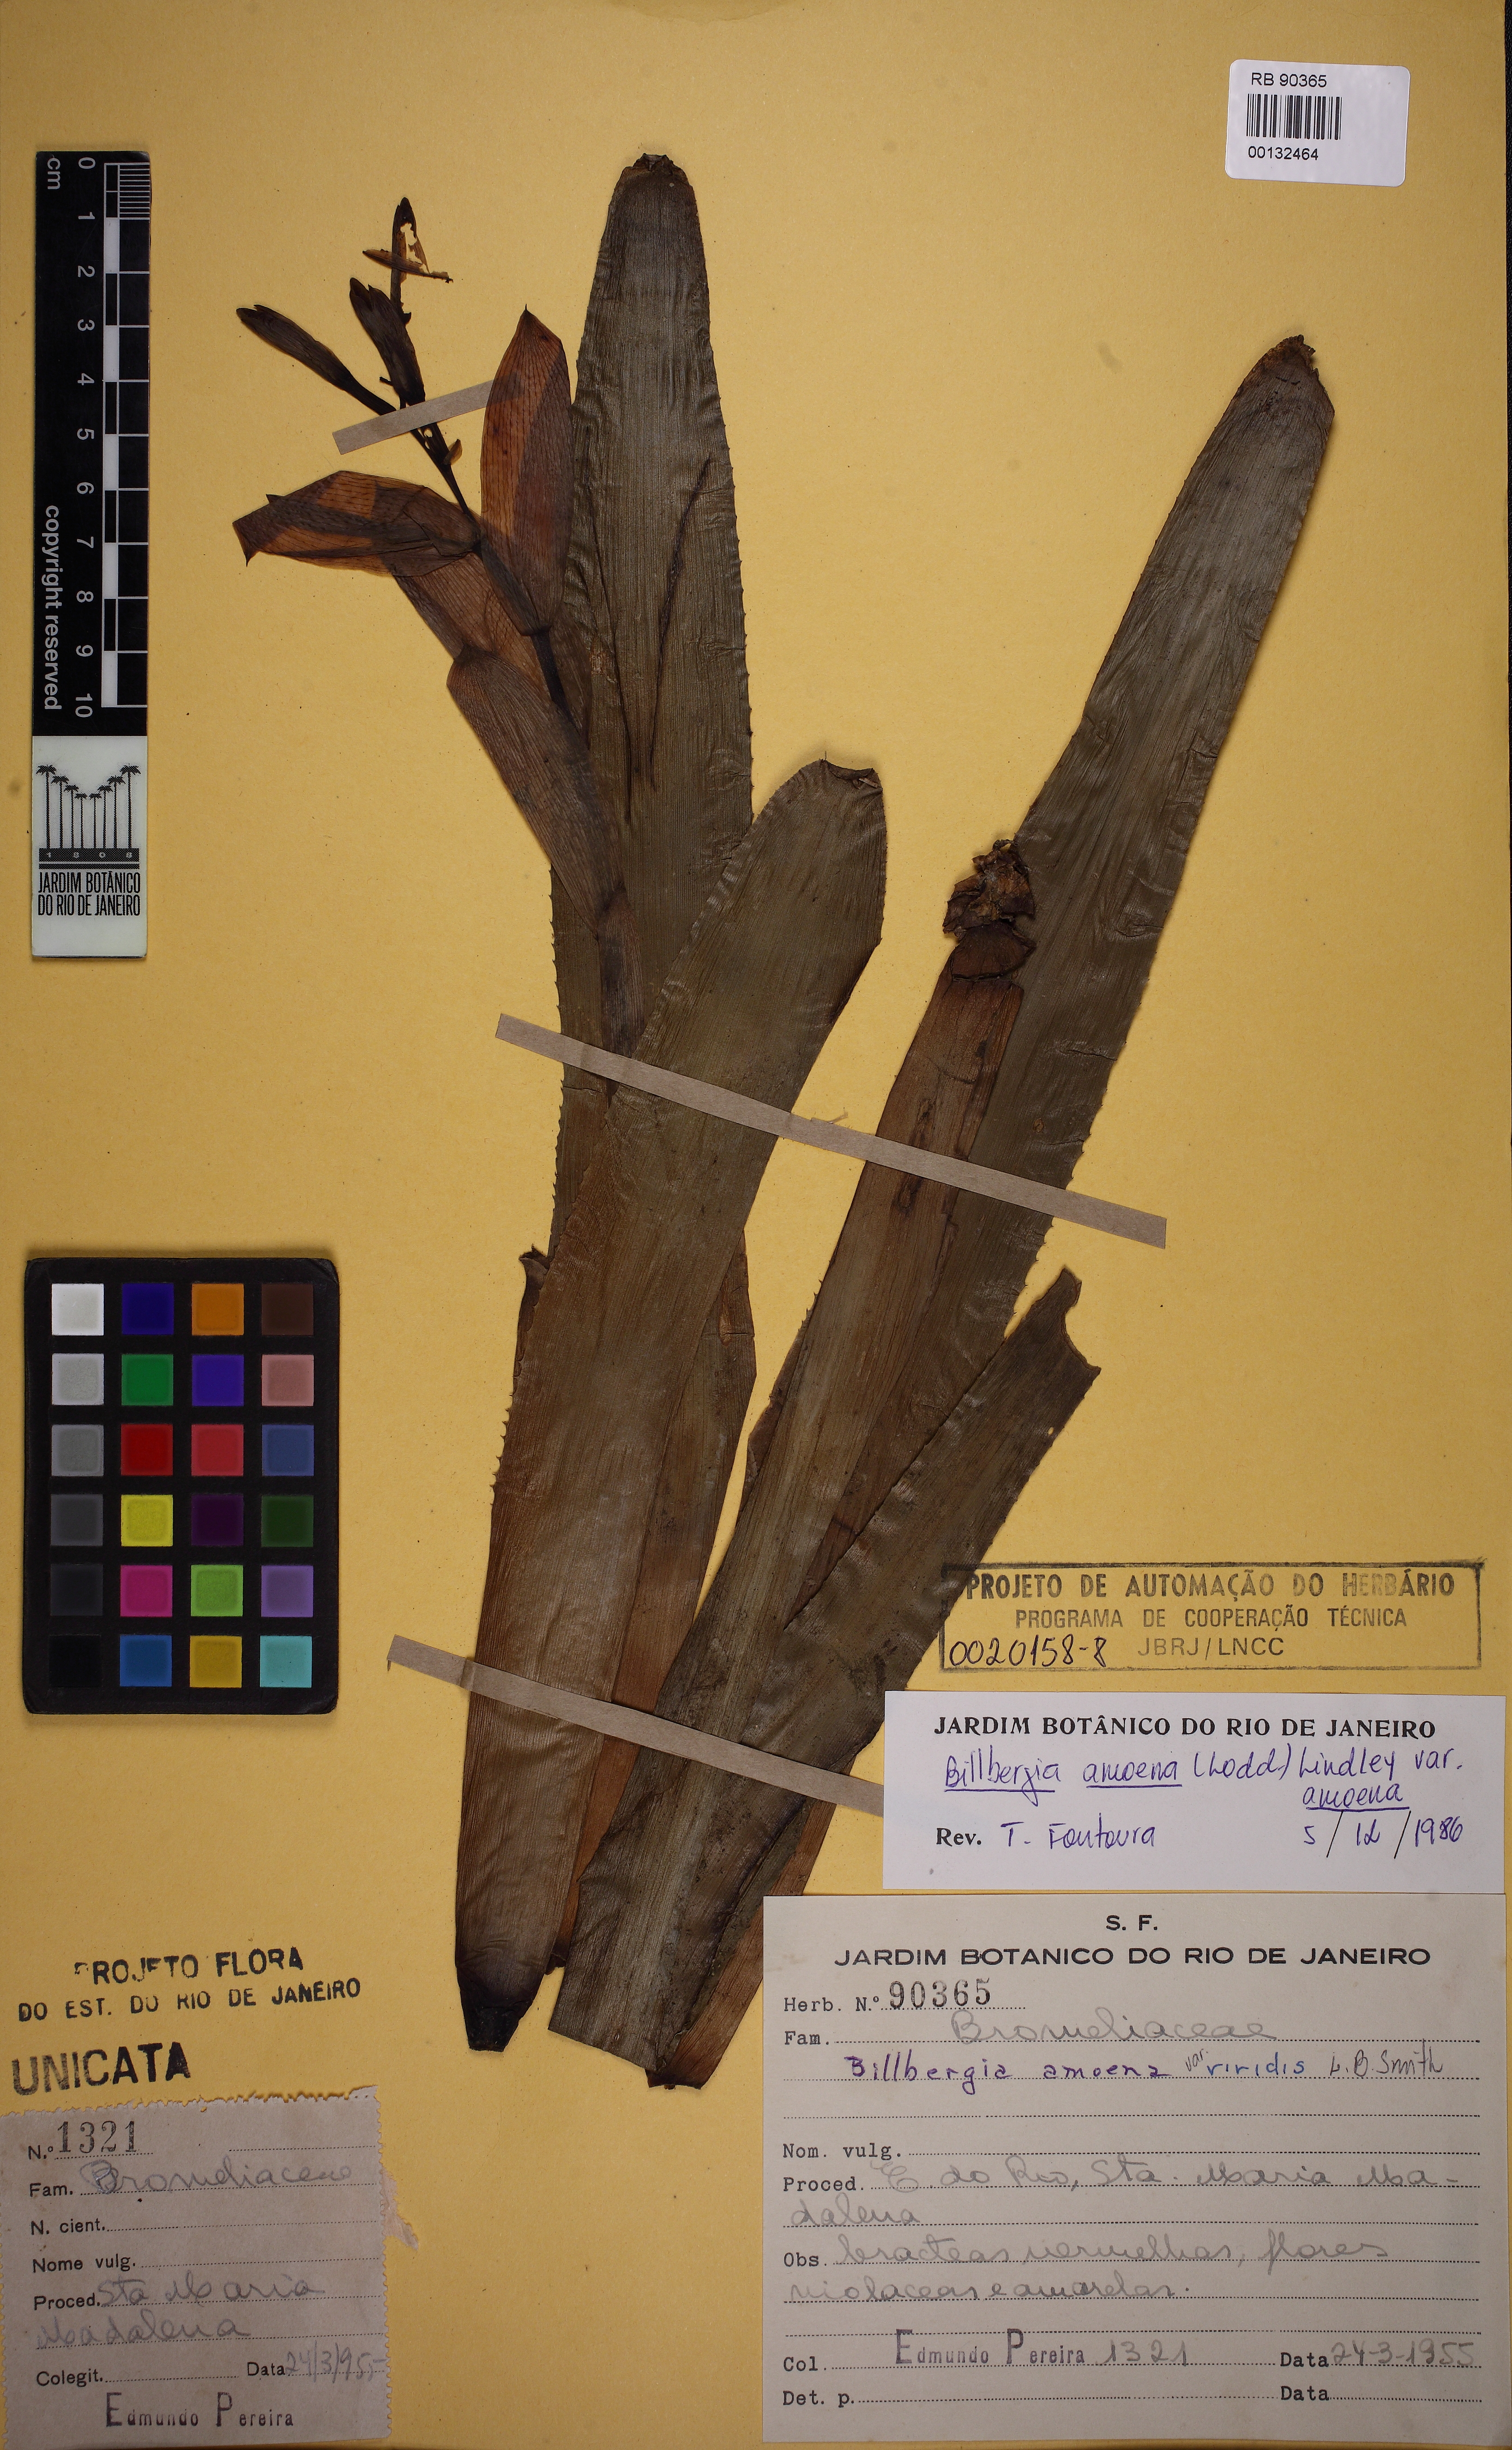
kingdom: Plantae
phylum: Tracheophyta
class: Liliopsida
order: Poales
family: Bromeliaceae
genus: Tillandsia
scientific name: Tillandsia tenuifolia
